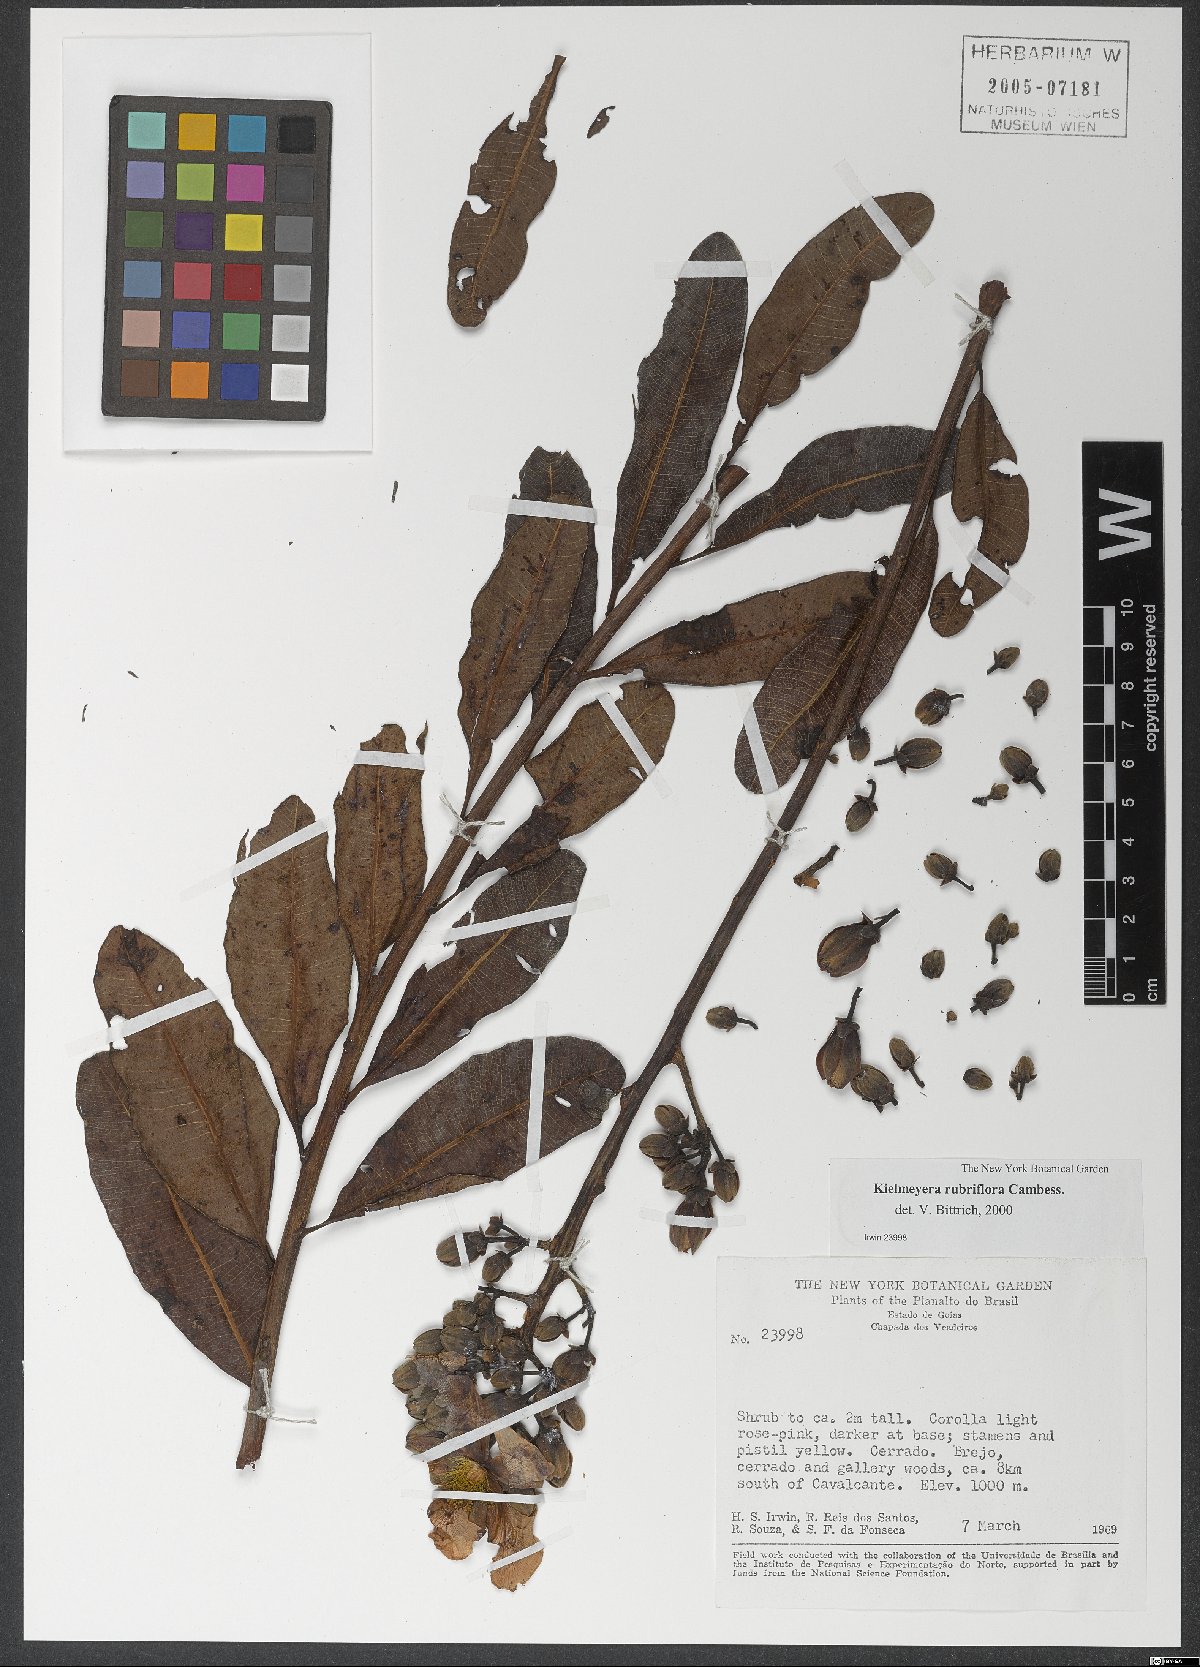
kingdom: Plantae
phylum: Tracheophyta
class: Magnoliopsida
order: Malpighiales
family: Calophyllaceae
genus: Kielmeyera
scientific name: Kielmeyera rubriflora
